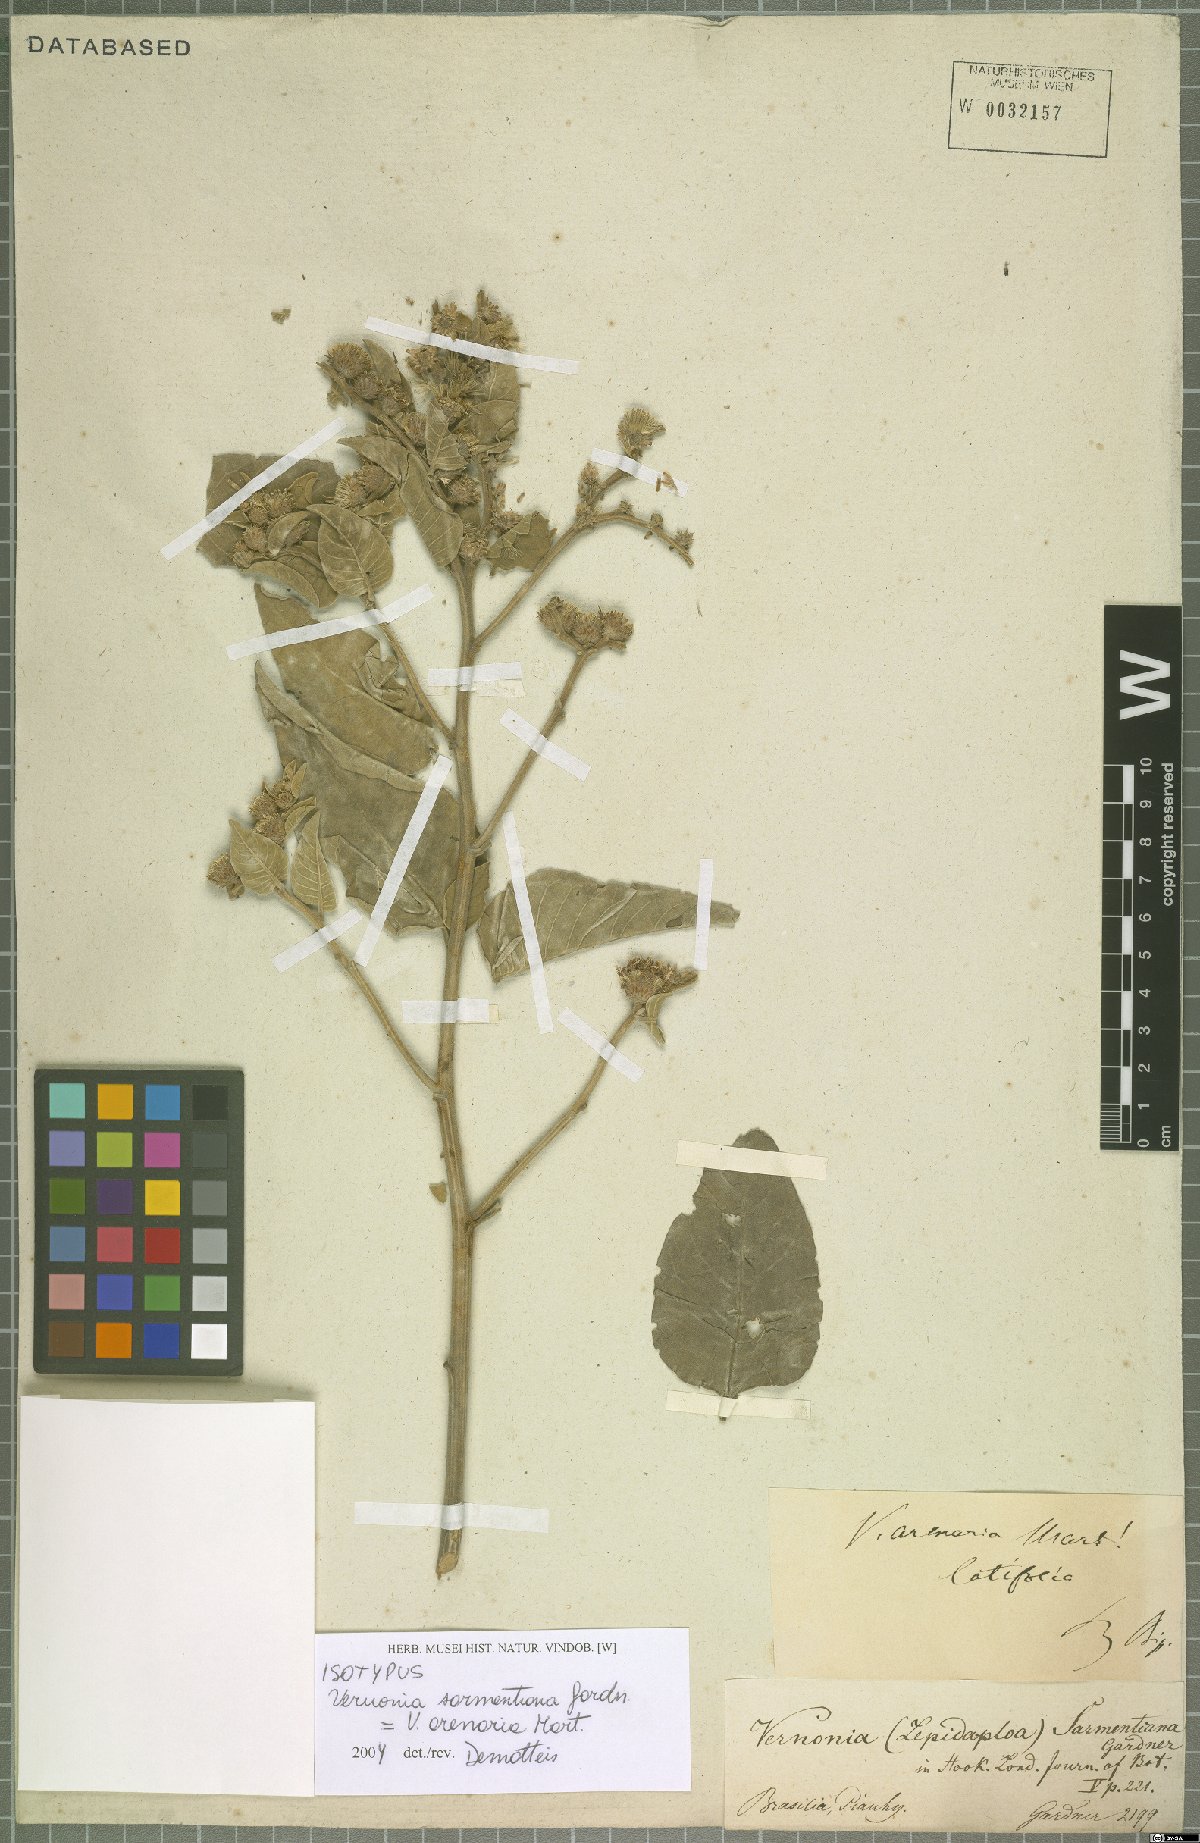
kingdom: Plantae
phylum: Tracheophyta
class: Magnoliopsida
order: Asterales
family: Asteraceae
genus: Lepidaploa
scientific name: Lepidaploa arenaria
